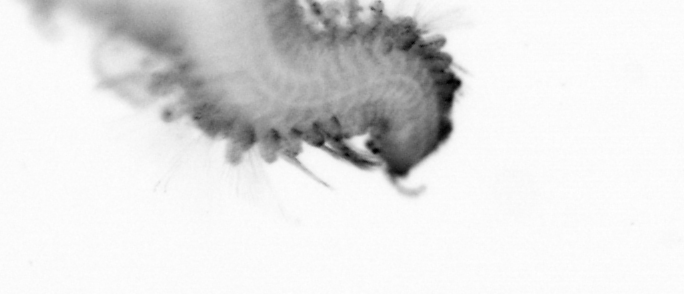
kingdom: Animalia
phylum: Annelida
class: Polychaeta
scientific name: Polychaeta
